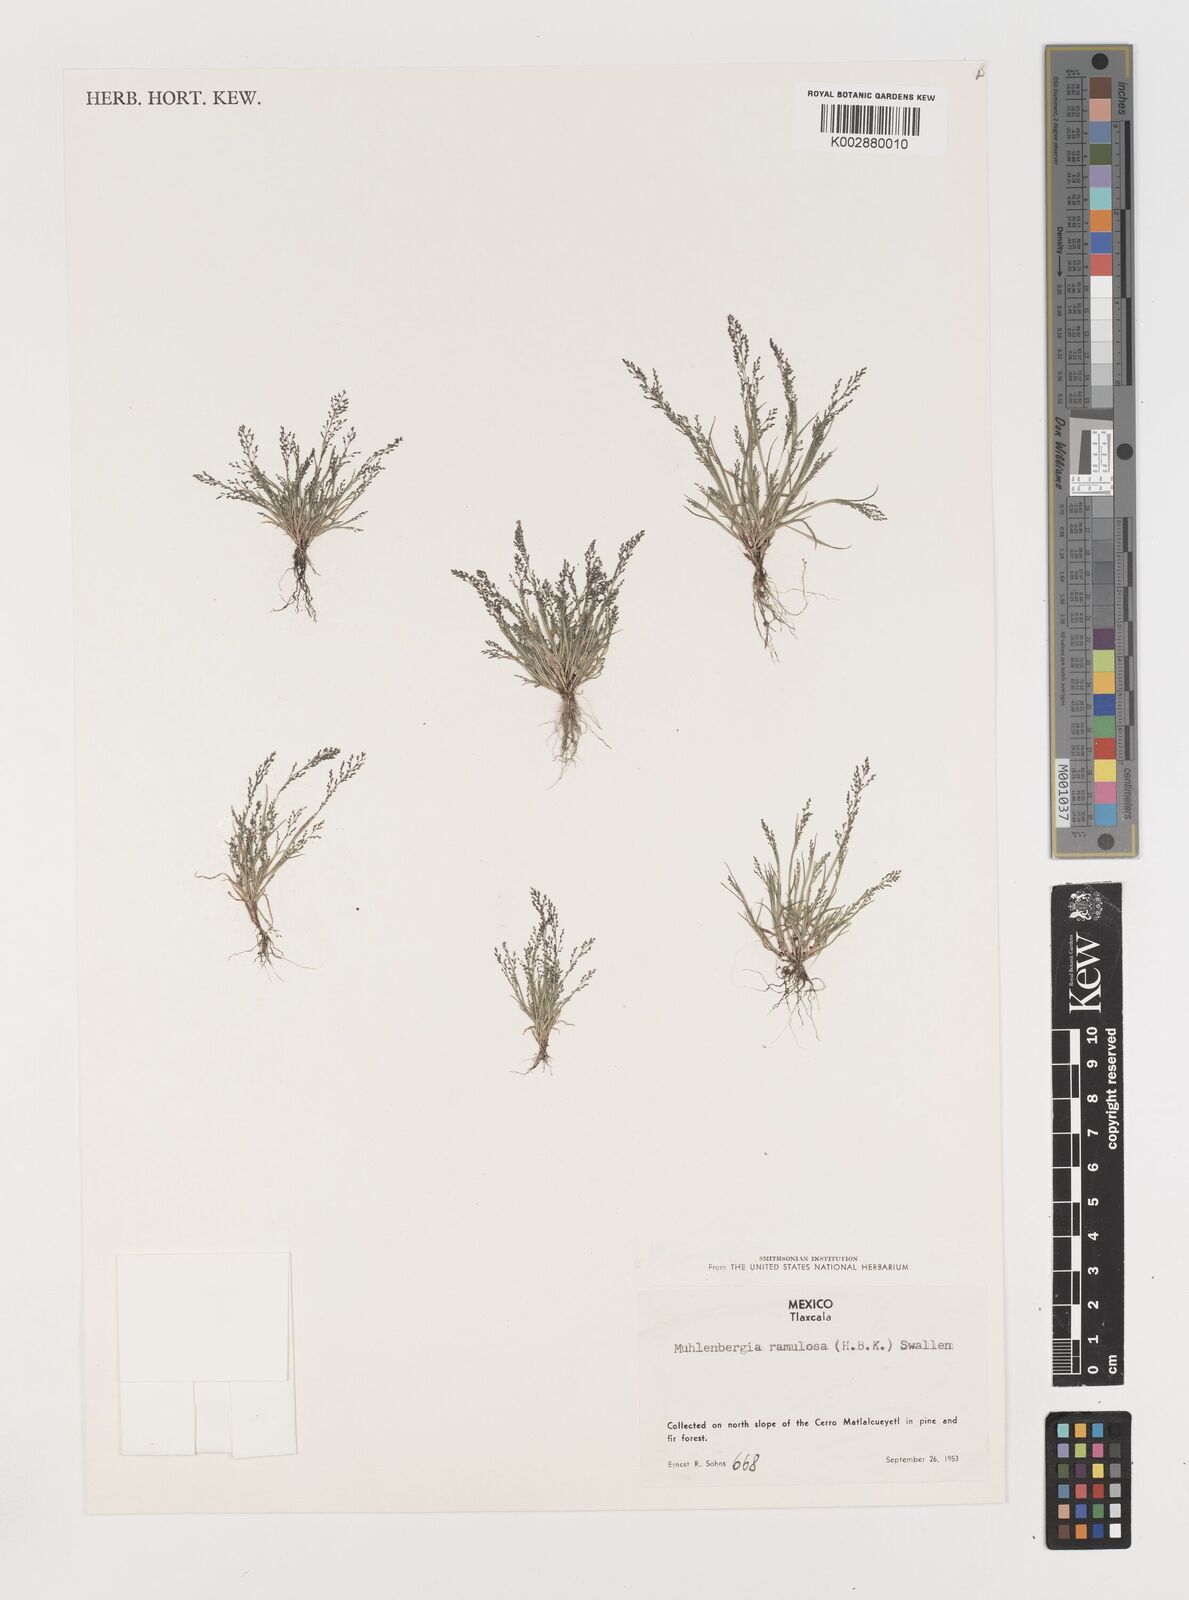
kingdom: Plantae
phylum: Tracheophyta
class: Liliopsida
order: Poales
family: Poaceae
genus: Muhlenbergia
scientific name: Muhlenbergia ramulosa
